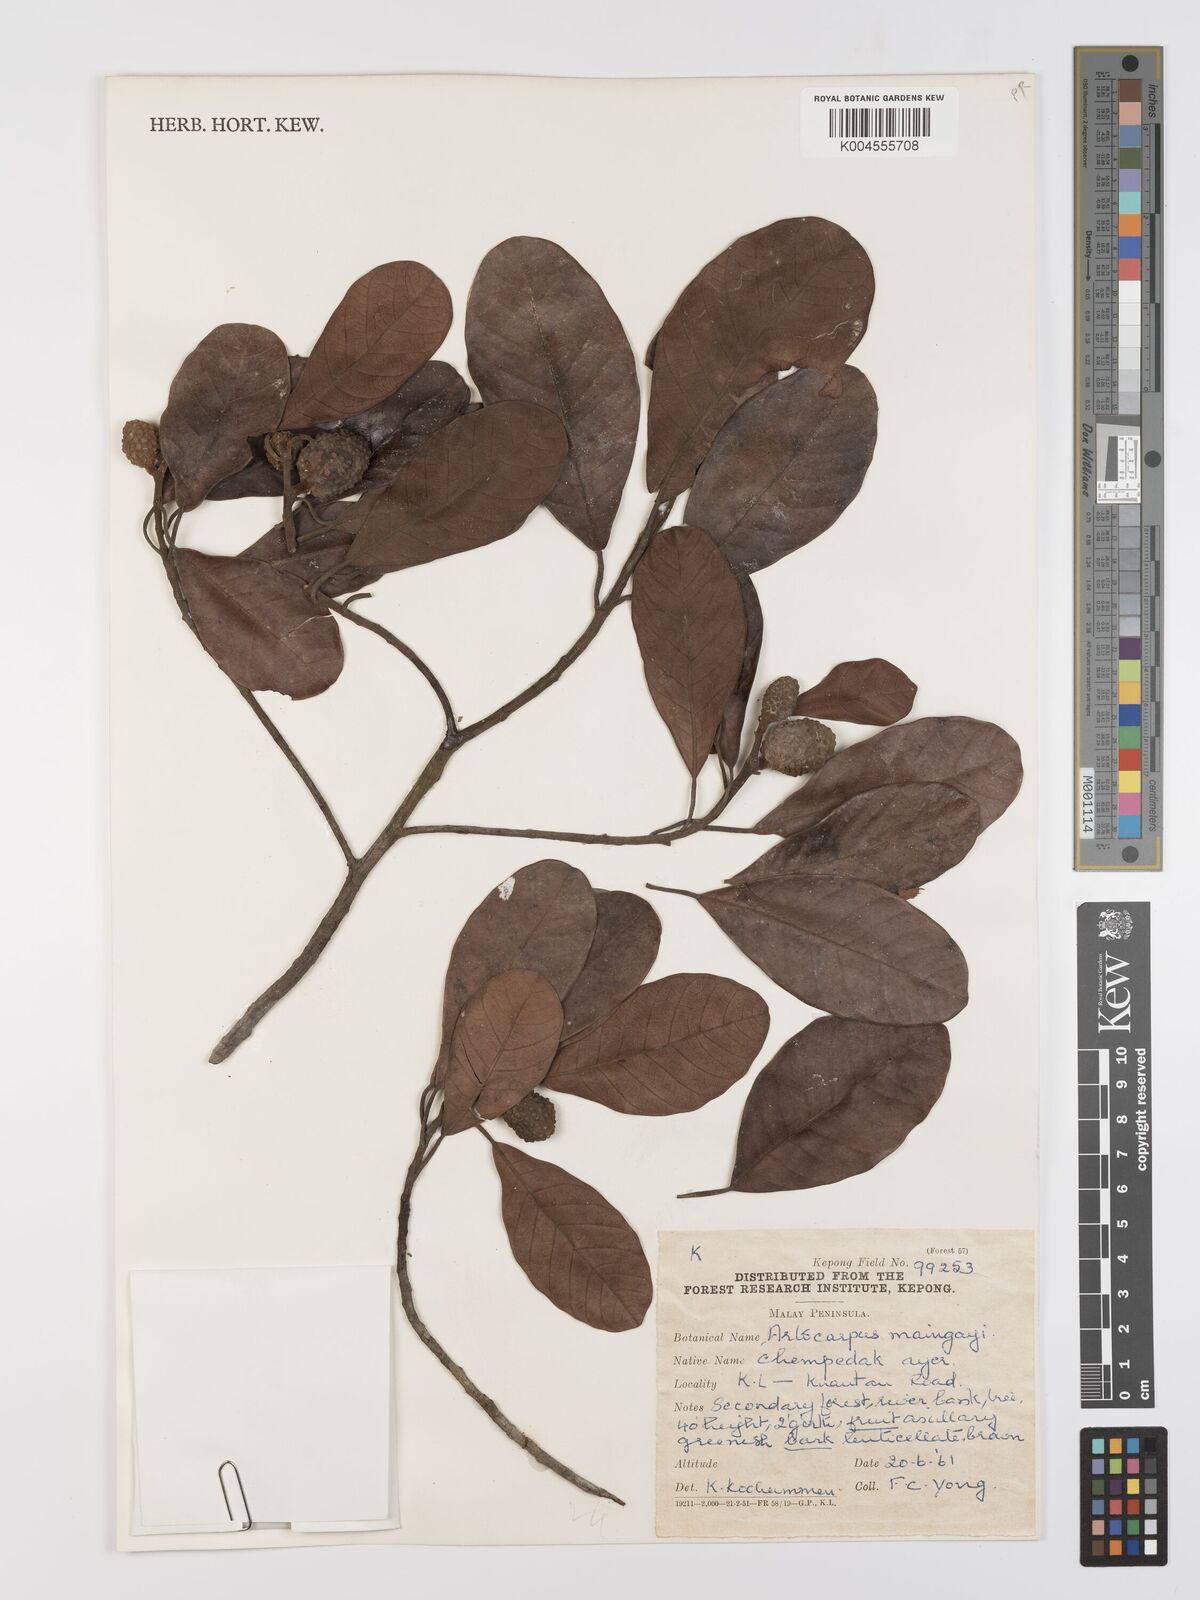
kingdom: Plantae
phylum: Tracheophyta
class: Magnoliopsida
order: Rosales
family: Moraceae
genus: Artocarpus
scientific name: Artocarpus kemando
